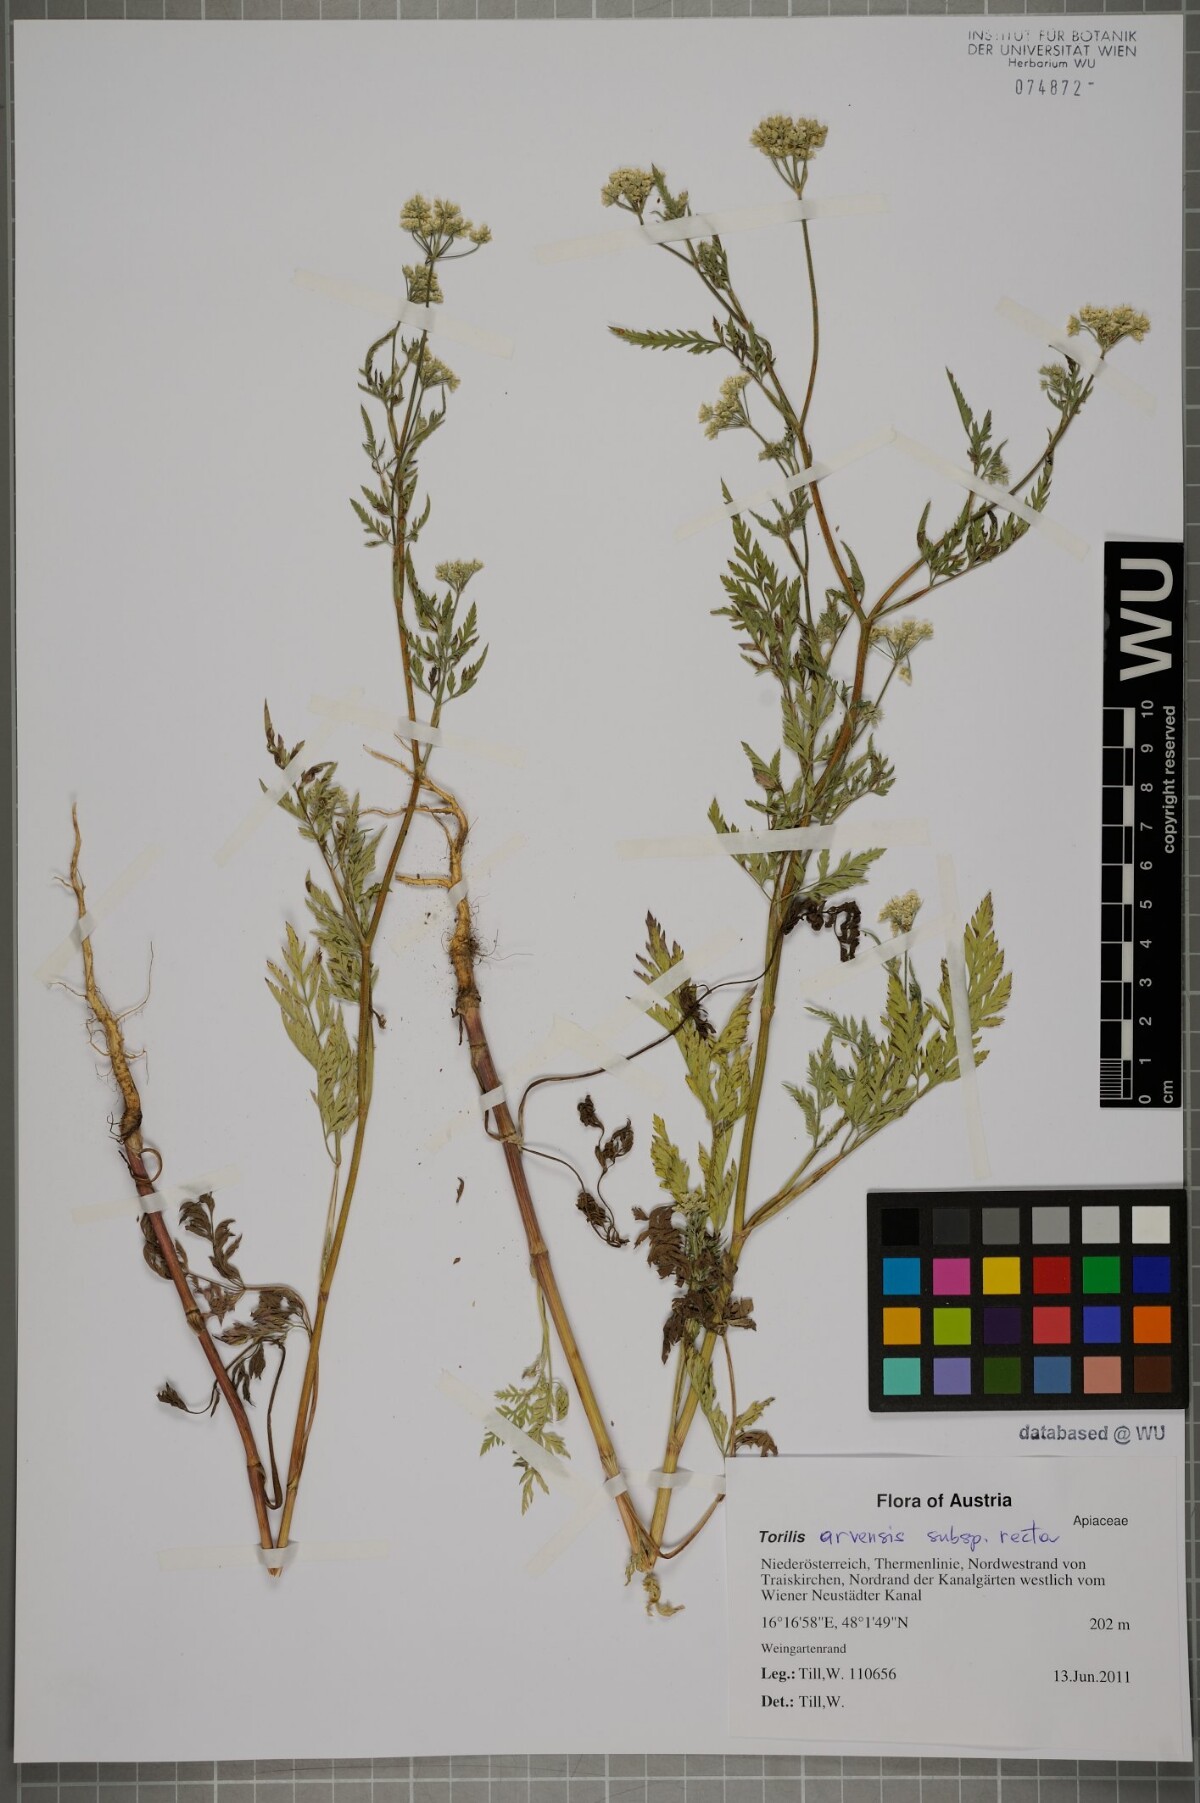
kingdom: Plantae
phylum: Tracheophyta
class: Magnoliopsida
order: Apiales
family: Apiaceae
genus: Torilis
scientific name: Torilis arvensis
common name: Spreading hedge-parsley
